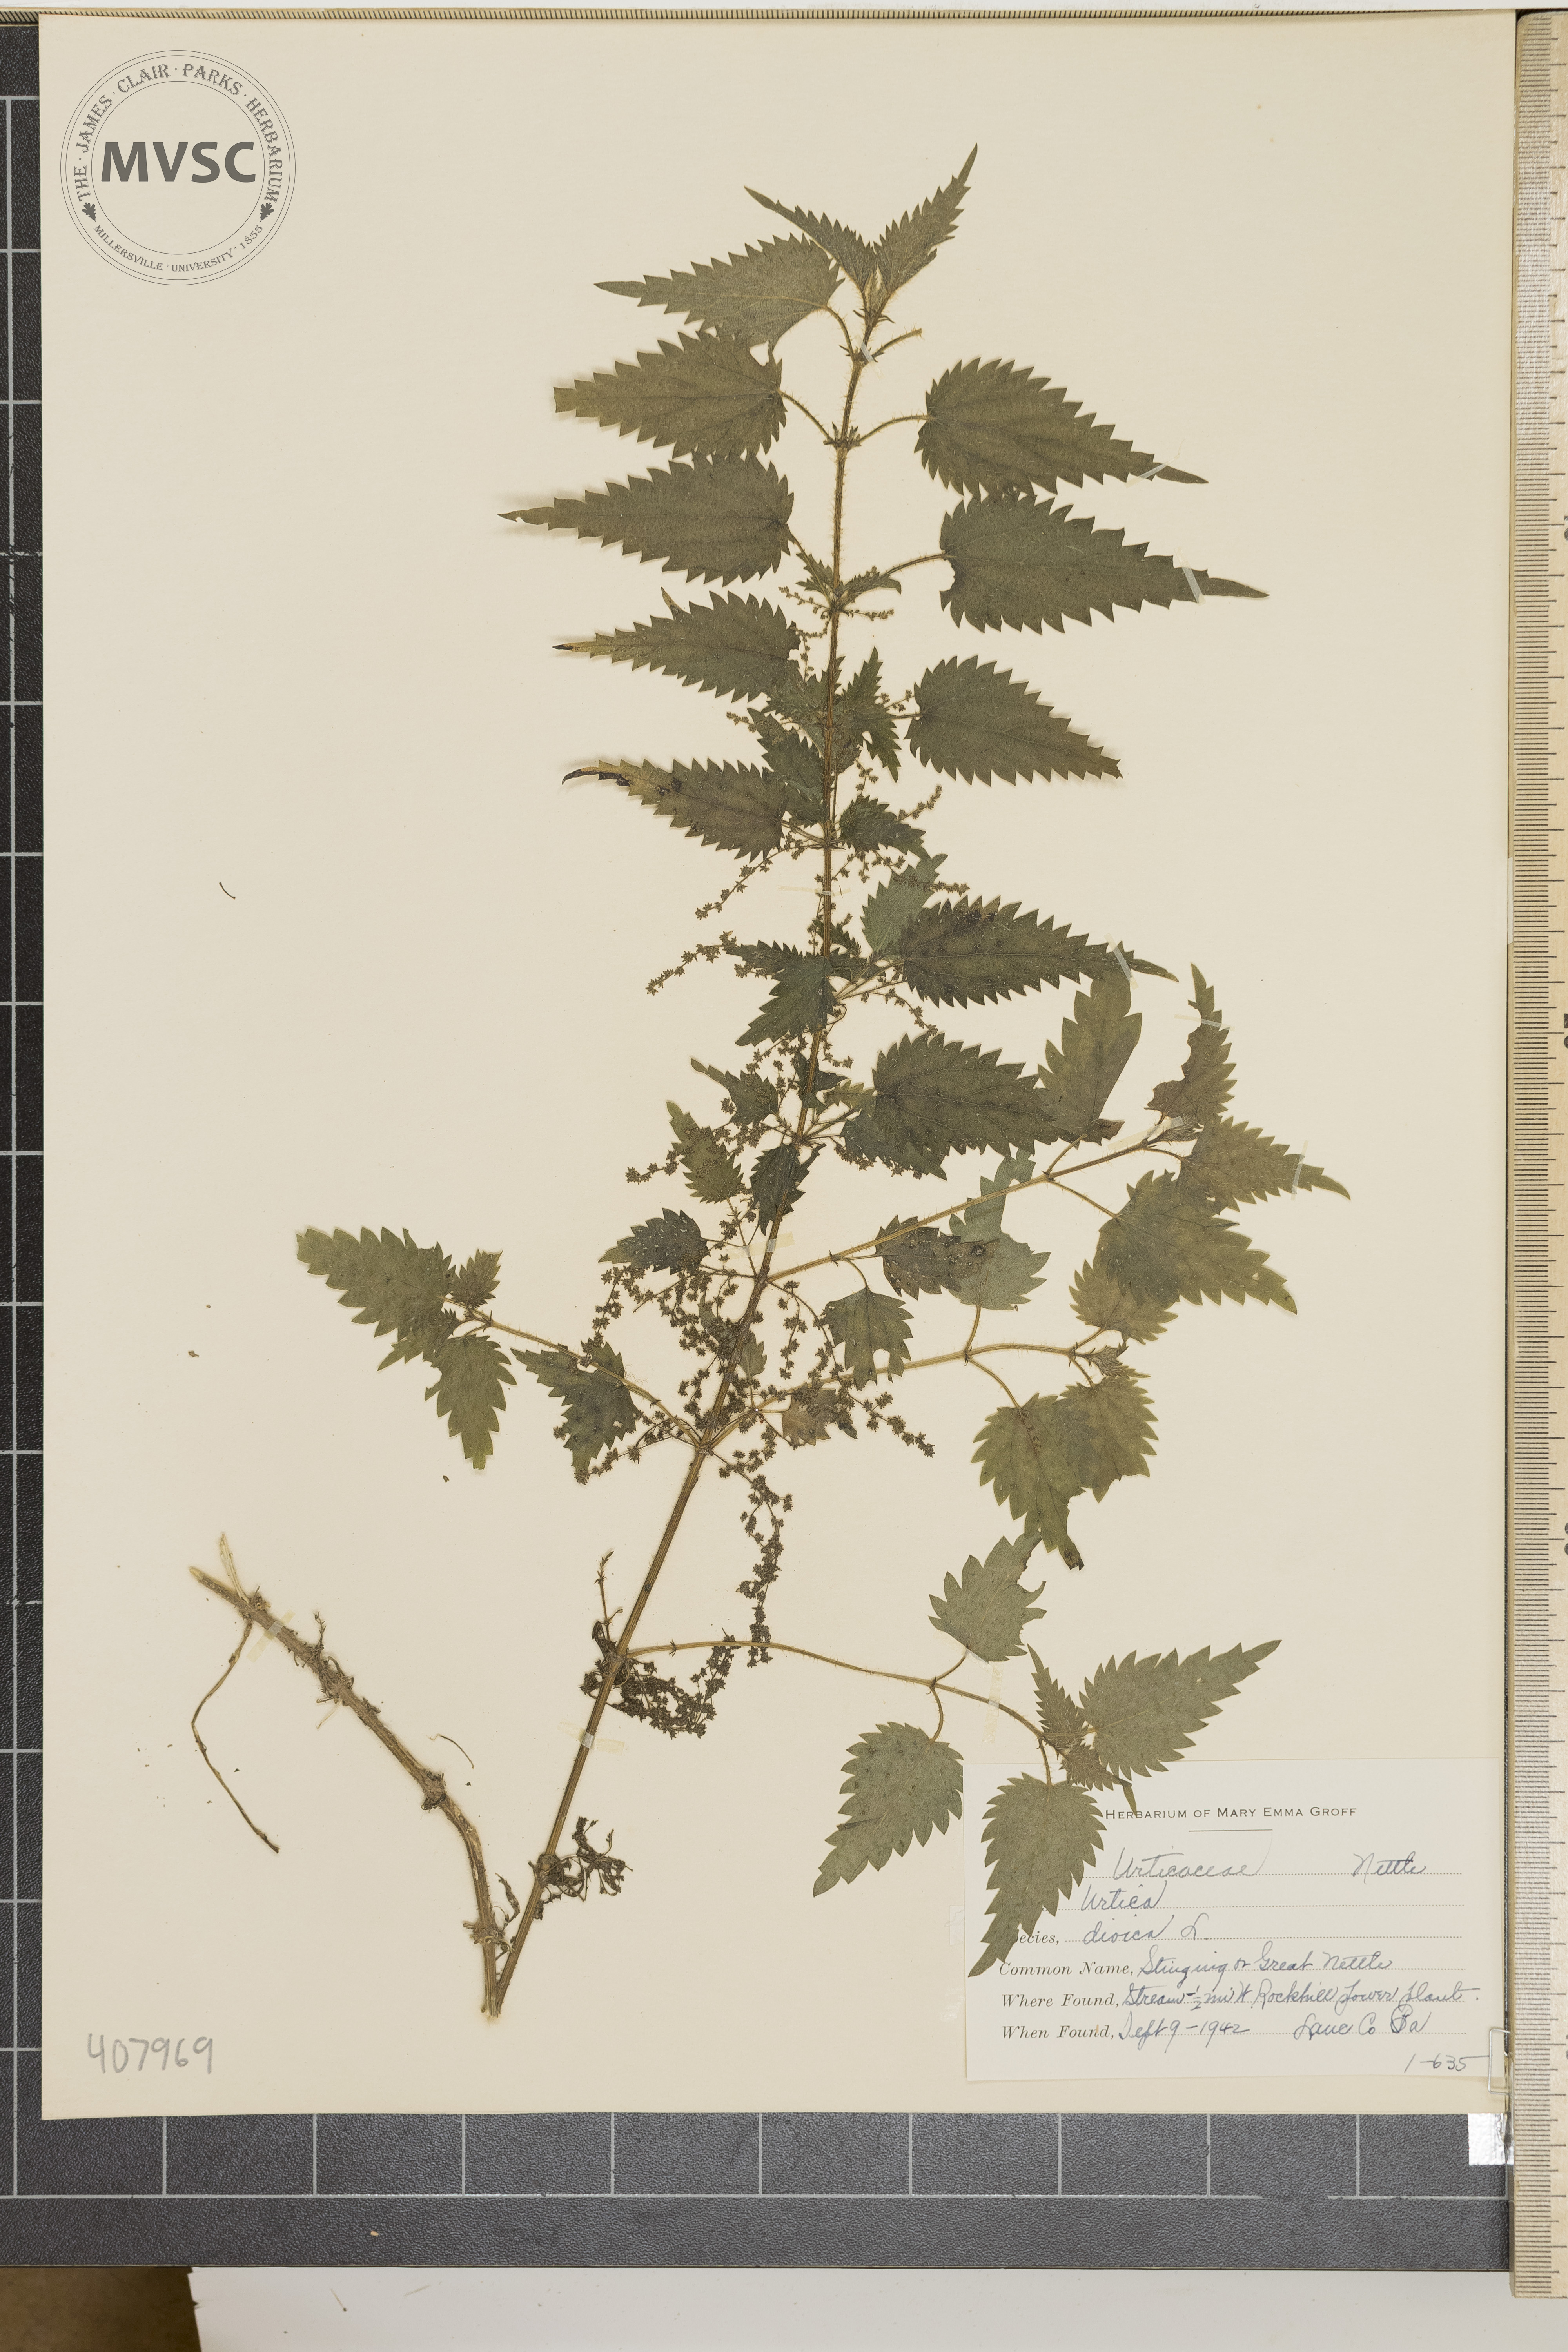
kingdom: Plantae
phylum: Tracheophyta
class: Magnoliopsida
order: Rosales
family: Urticaceae
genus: Urtica
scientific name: Urtica dioica
